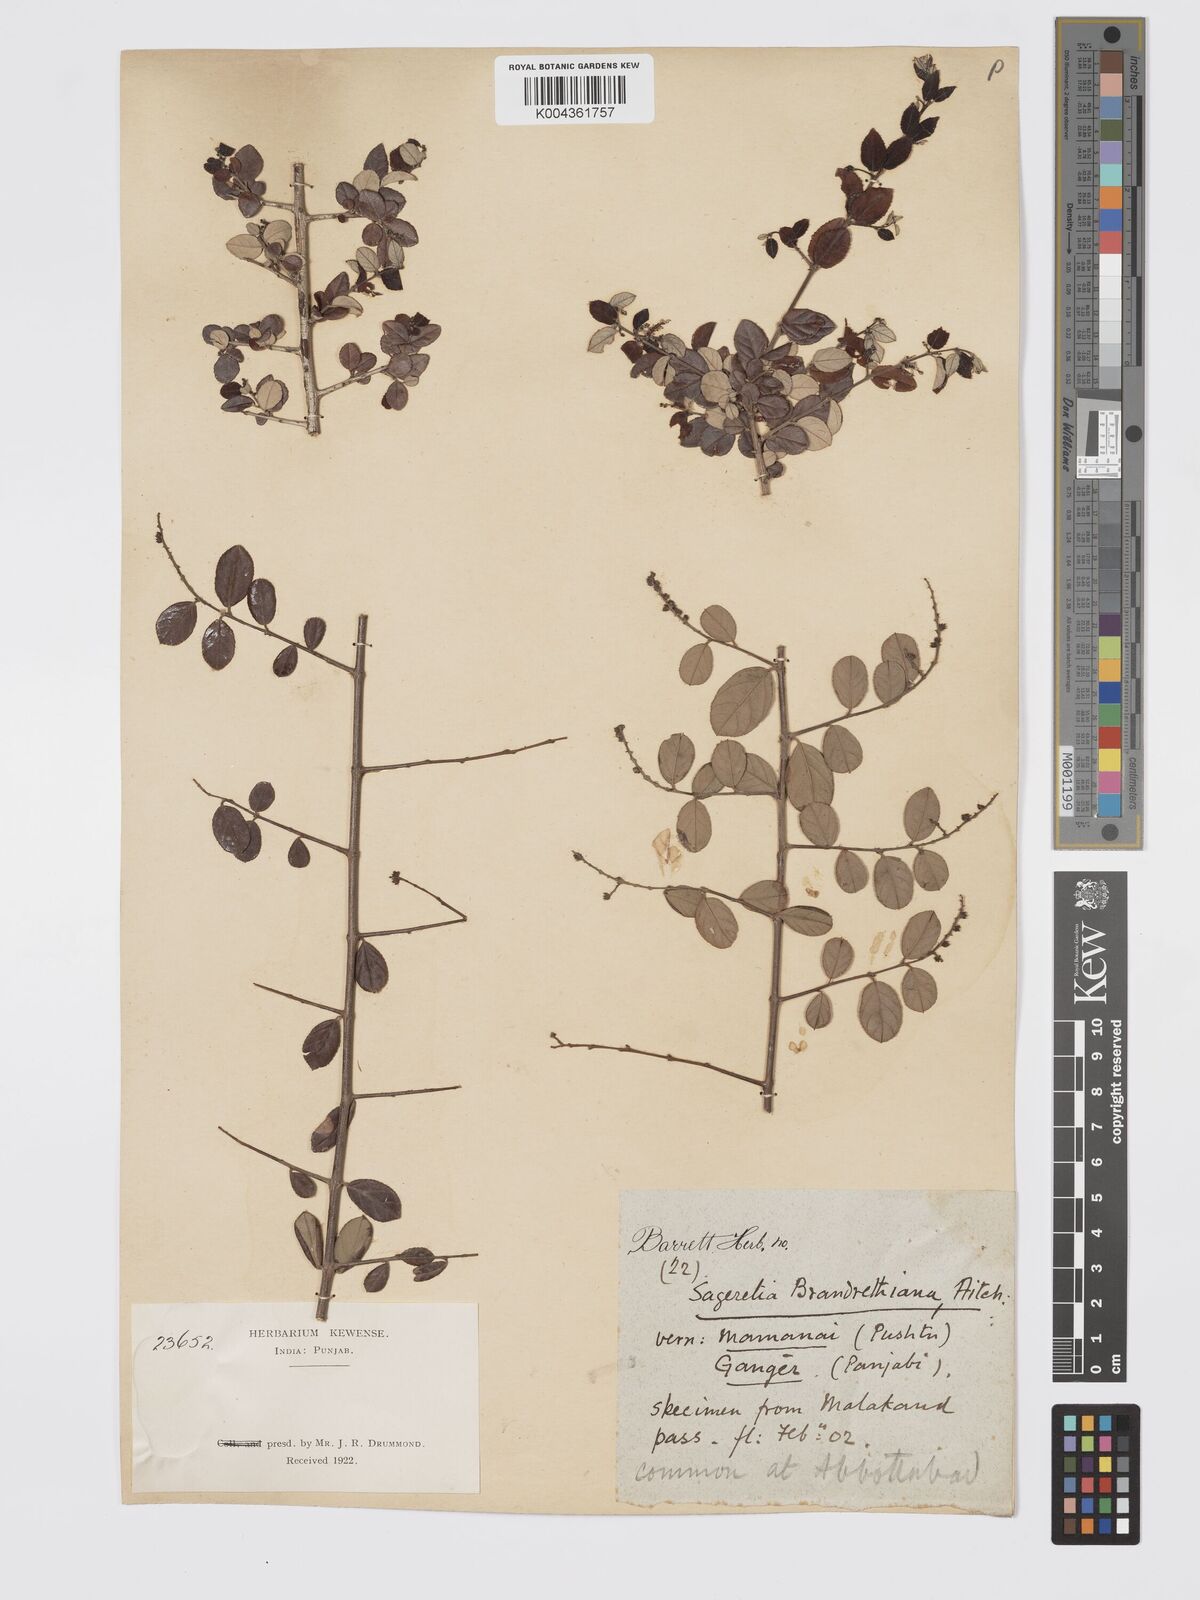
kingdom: Plantae
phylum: Tracheophyta
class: Magnoliopsida
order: Rosales
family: Rhamnaceae
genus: Sageretia
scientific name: Sageretia brandrethiana
